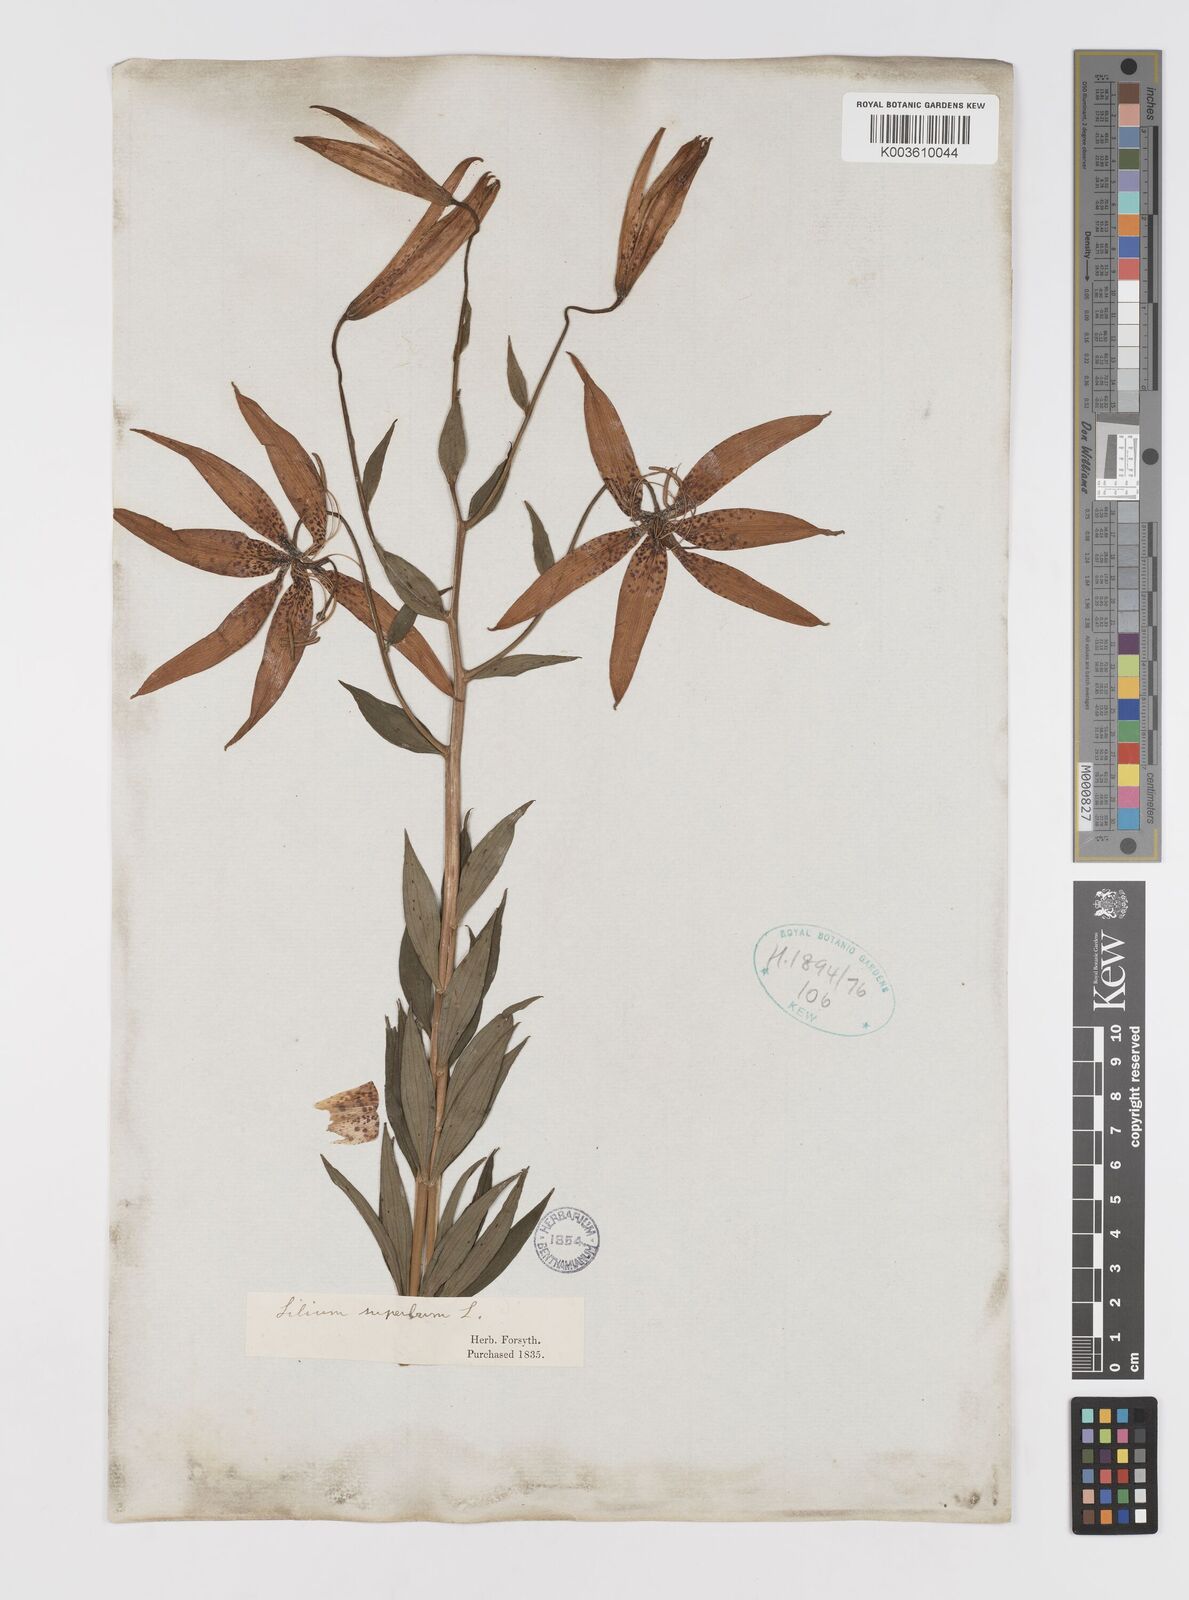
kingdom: Plantae
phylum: Tracheophyta
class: Liliopsida
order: Liliales
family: Liliaceae
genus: Lilium
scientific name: Lilium superbum
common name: American turk's-cap lily
